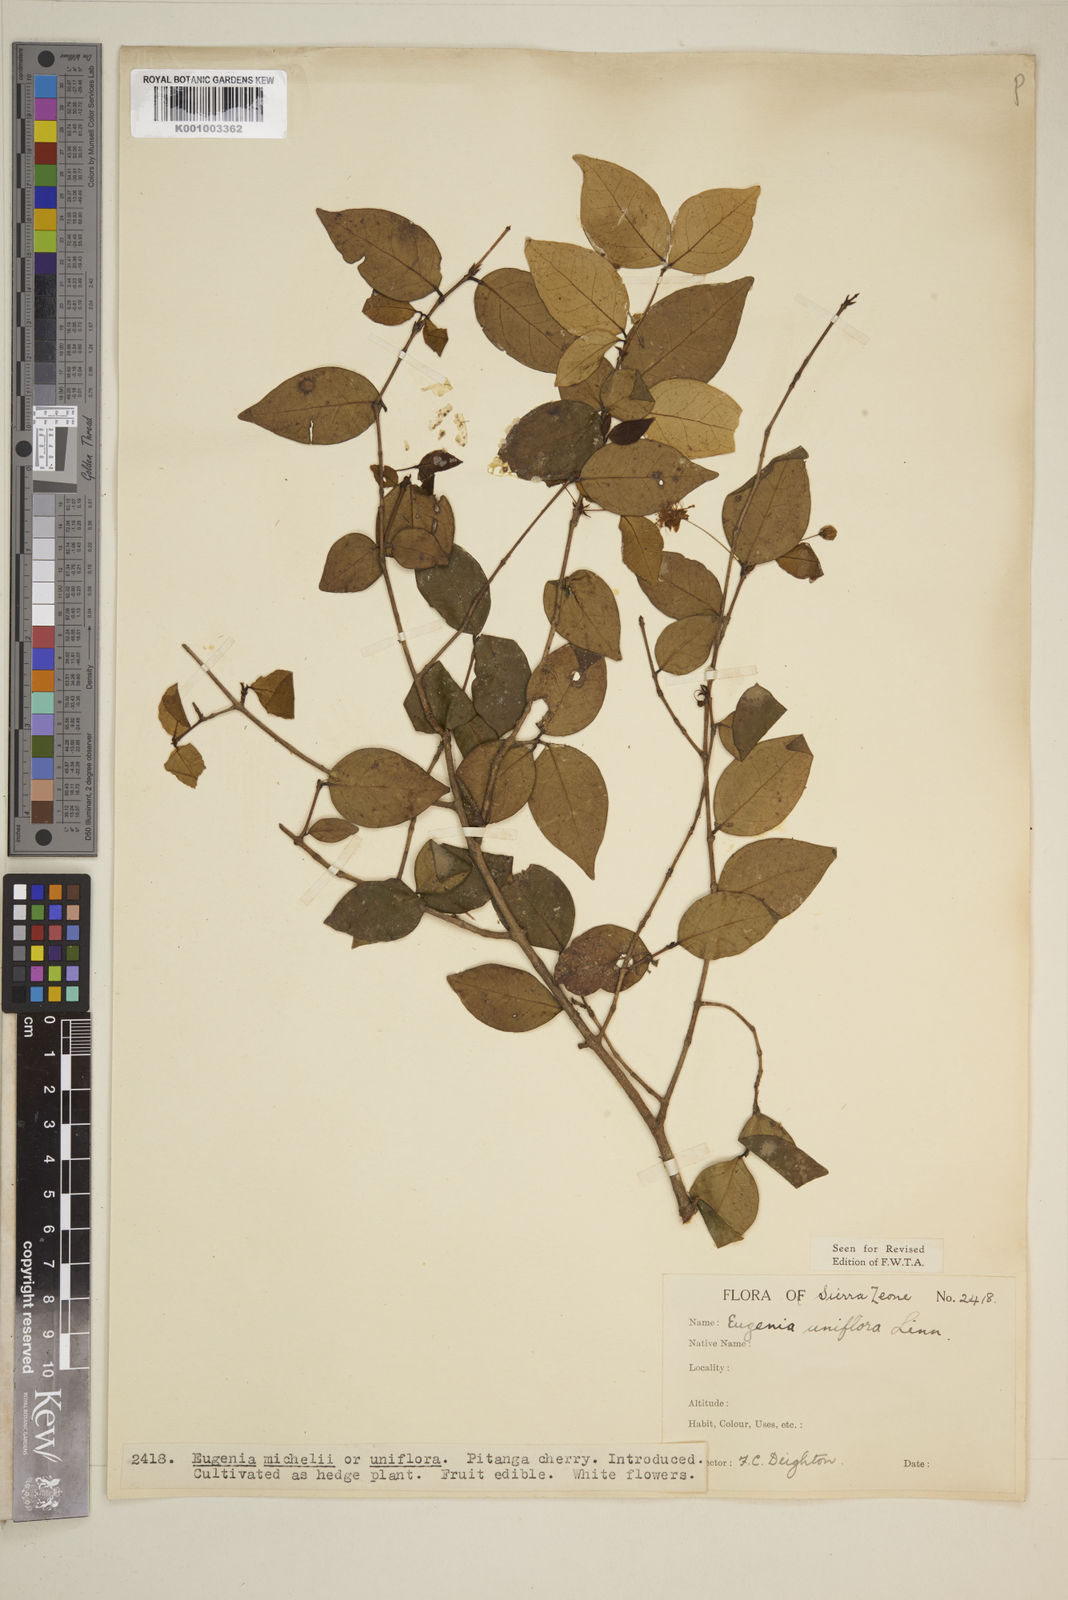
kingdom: Plantae
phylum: Tracheophyta
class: Magnoliopsida
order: Myrtales
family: Myrtaceae
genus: Eugenia
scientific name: Eugenia uniflora
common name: Surinam cherry
